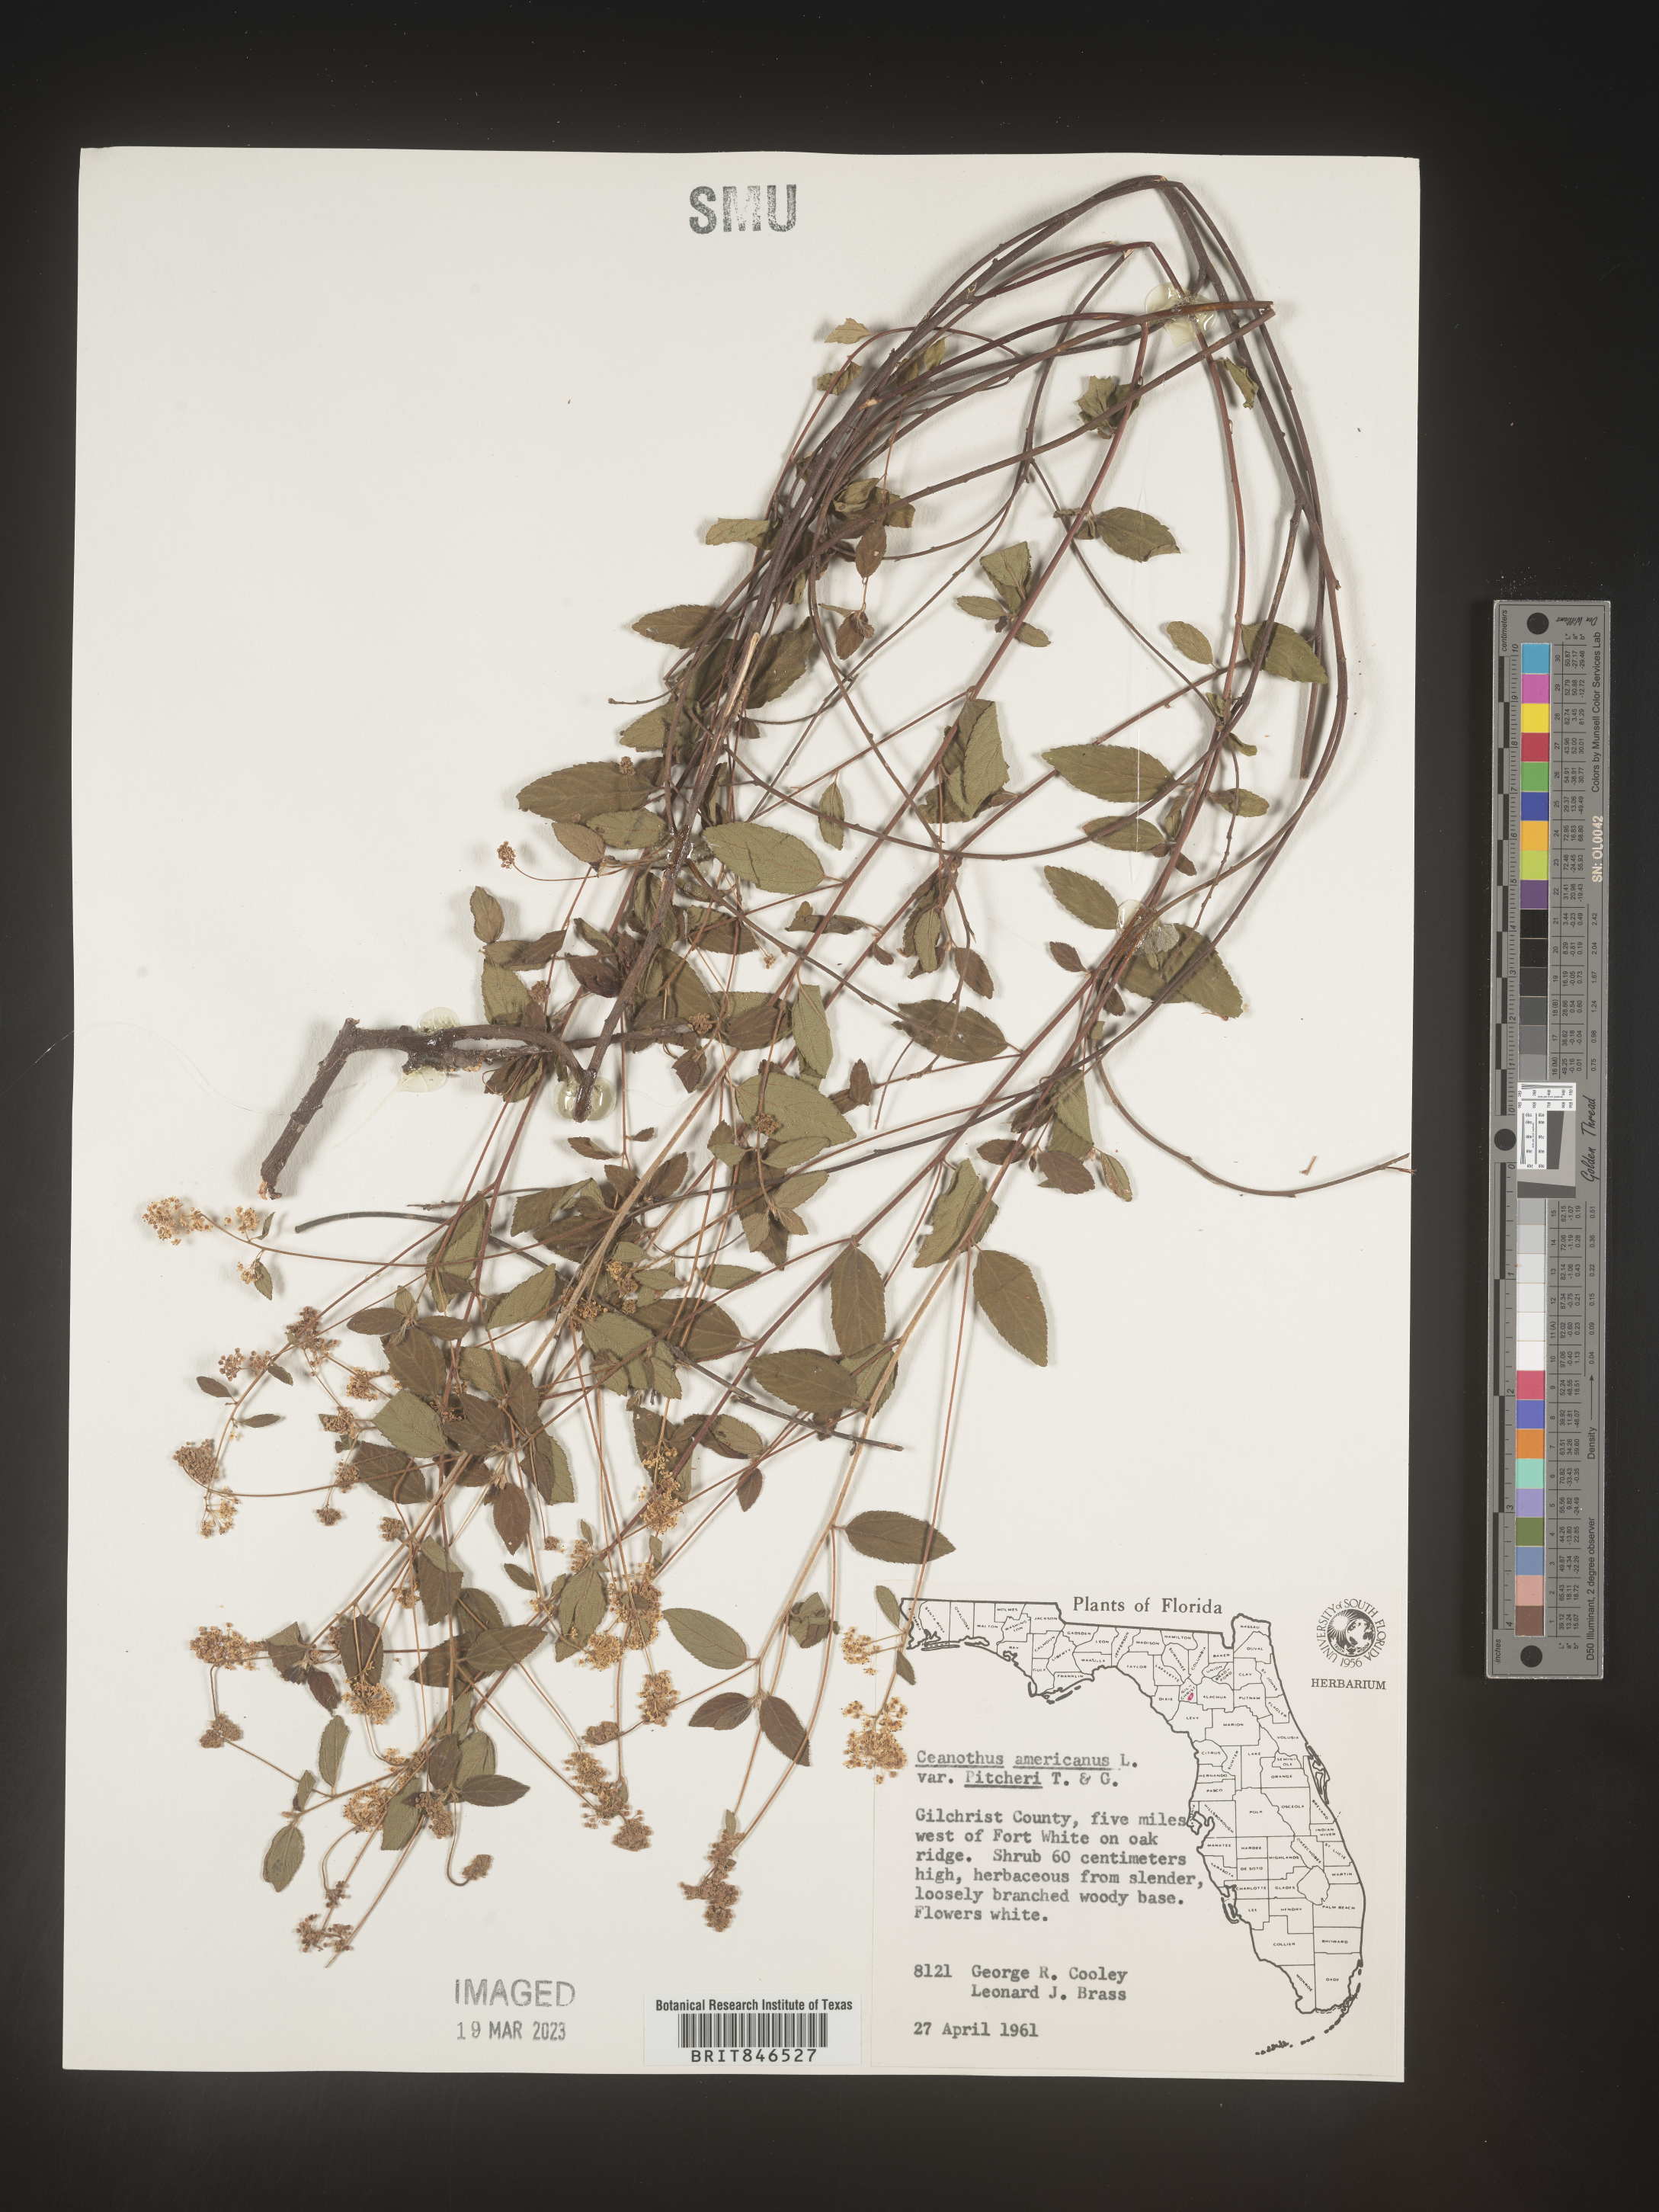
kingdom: Plantae
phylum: Tracheophyta
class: Magnoliopsida
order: Rosales
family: Rhamnaceae
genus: Ceanothus
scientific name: Ceanothus americanus
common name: Redroot
